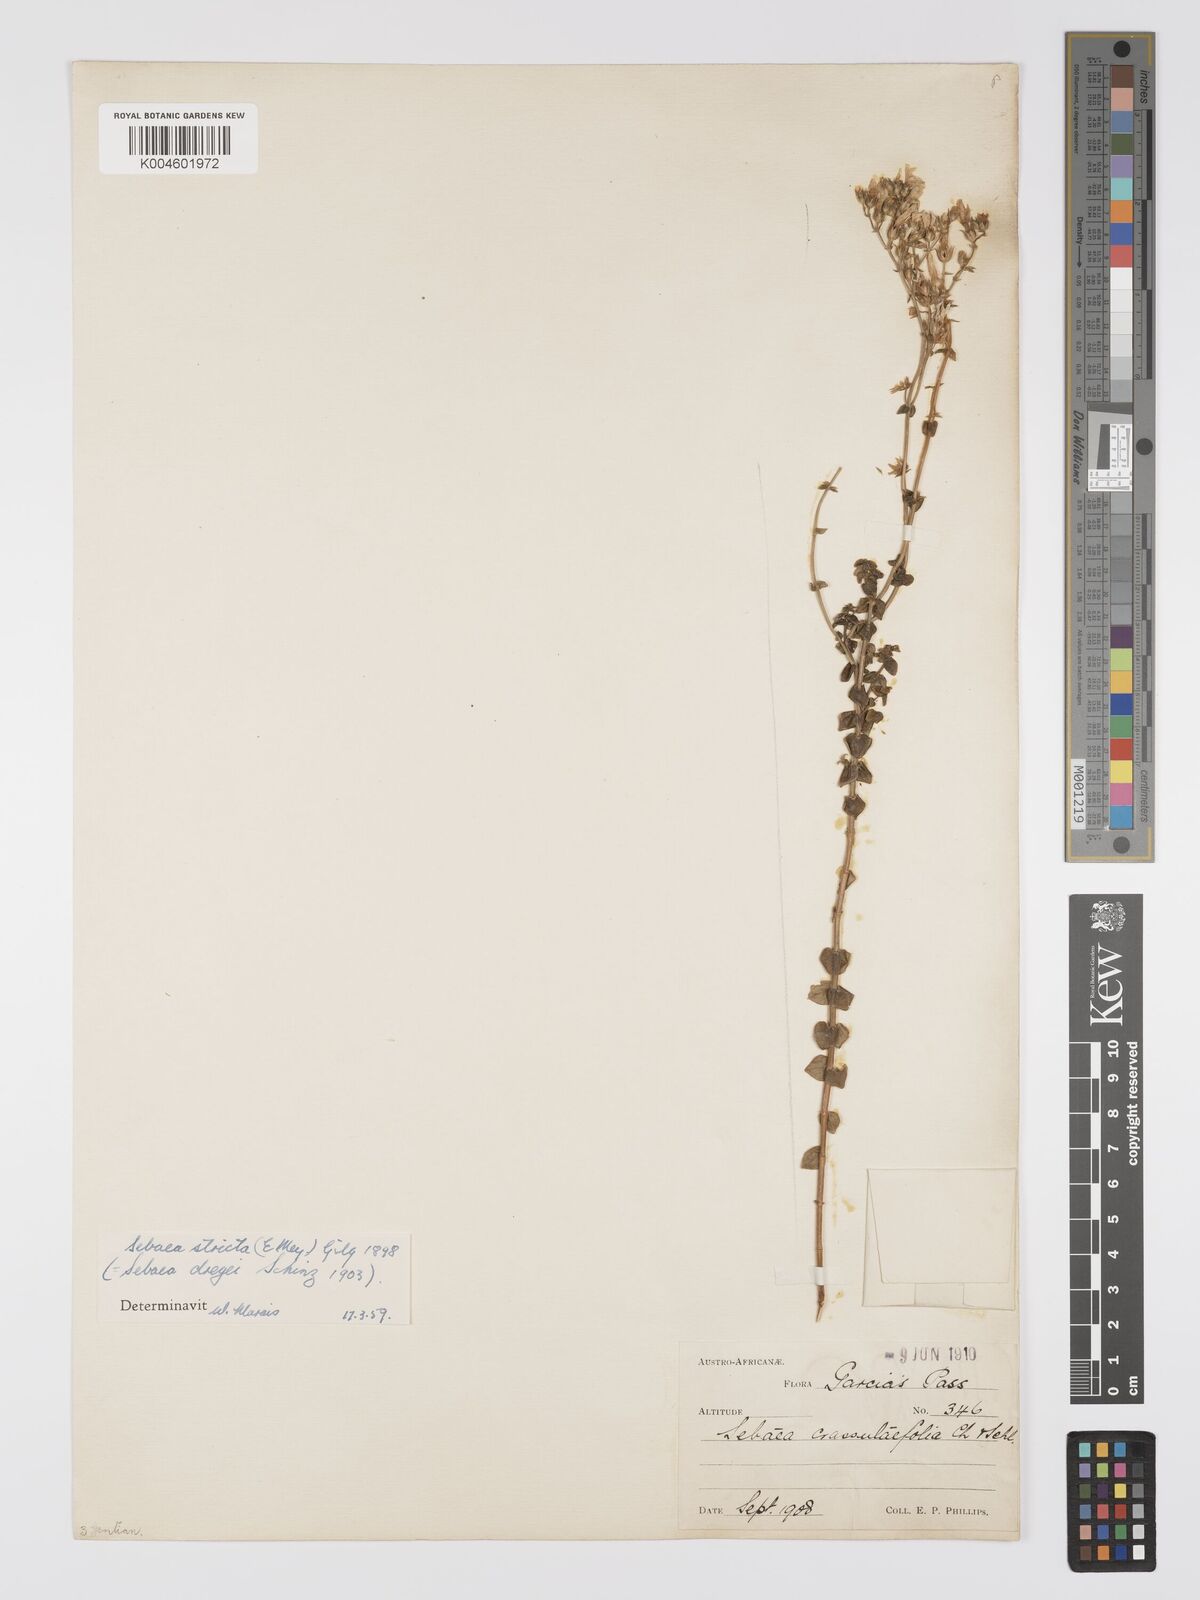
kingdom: Plantae
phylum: Tracheophyta
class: Magnoliopsida
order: Gentianales
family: Gentianaceae
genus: Sebaea
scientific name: Sebaea
